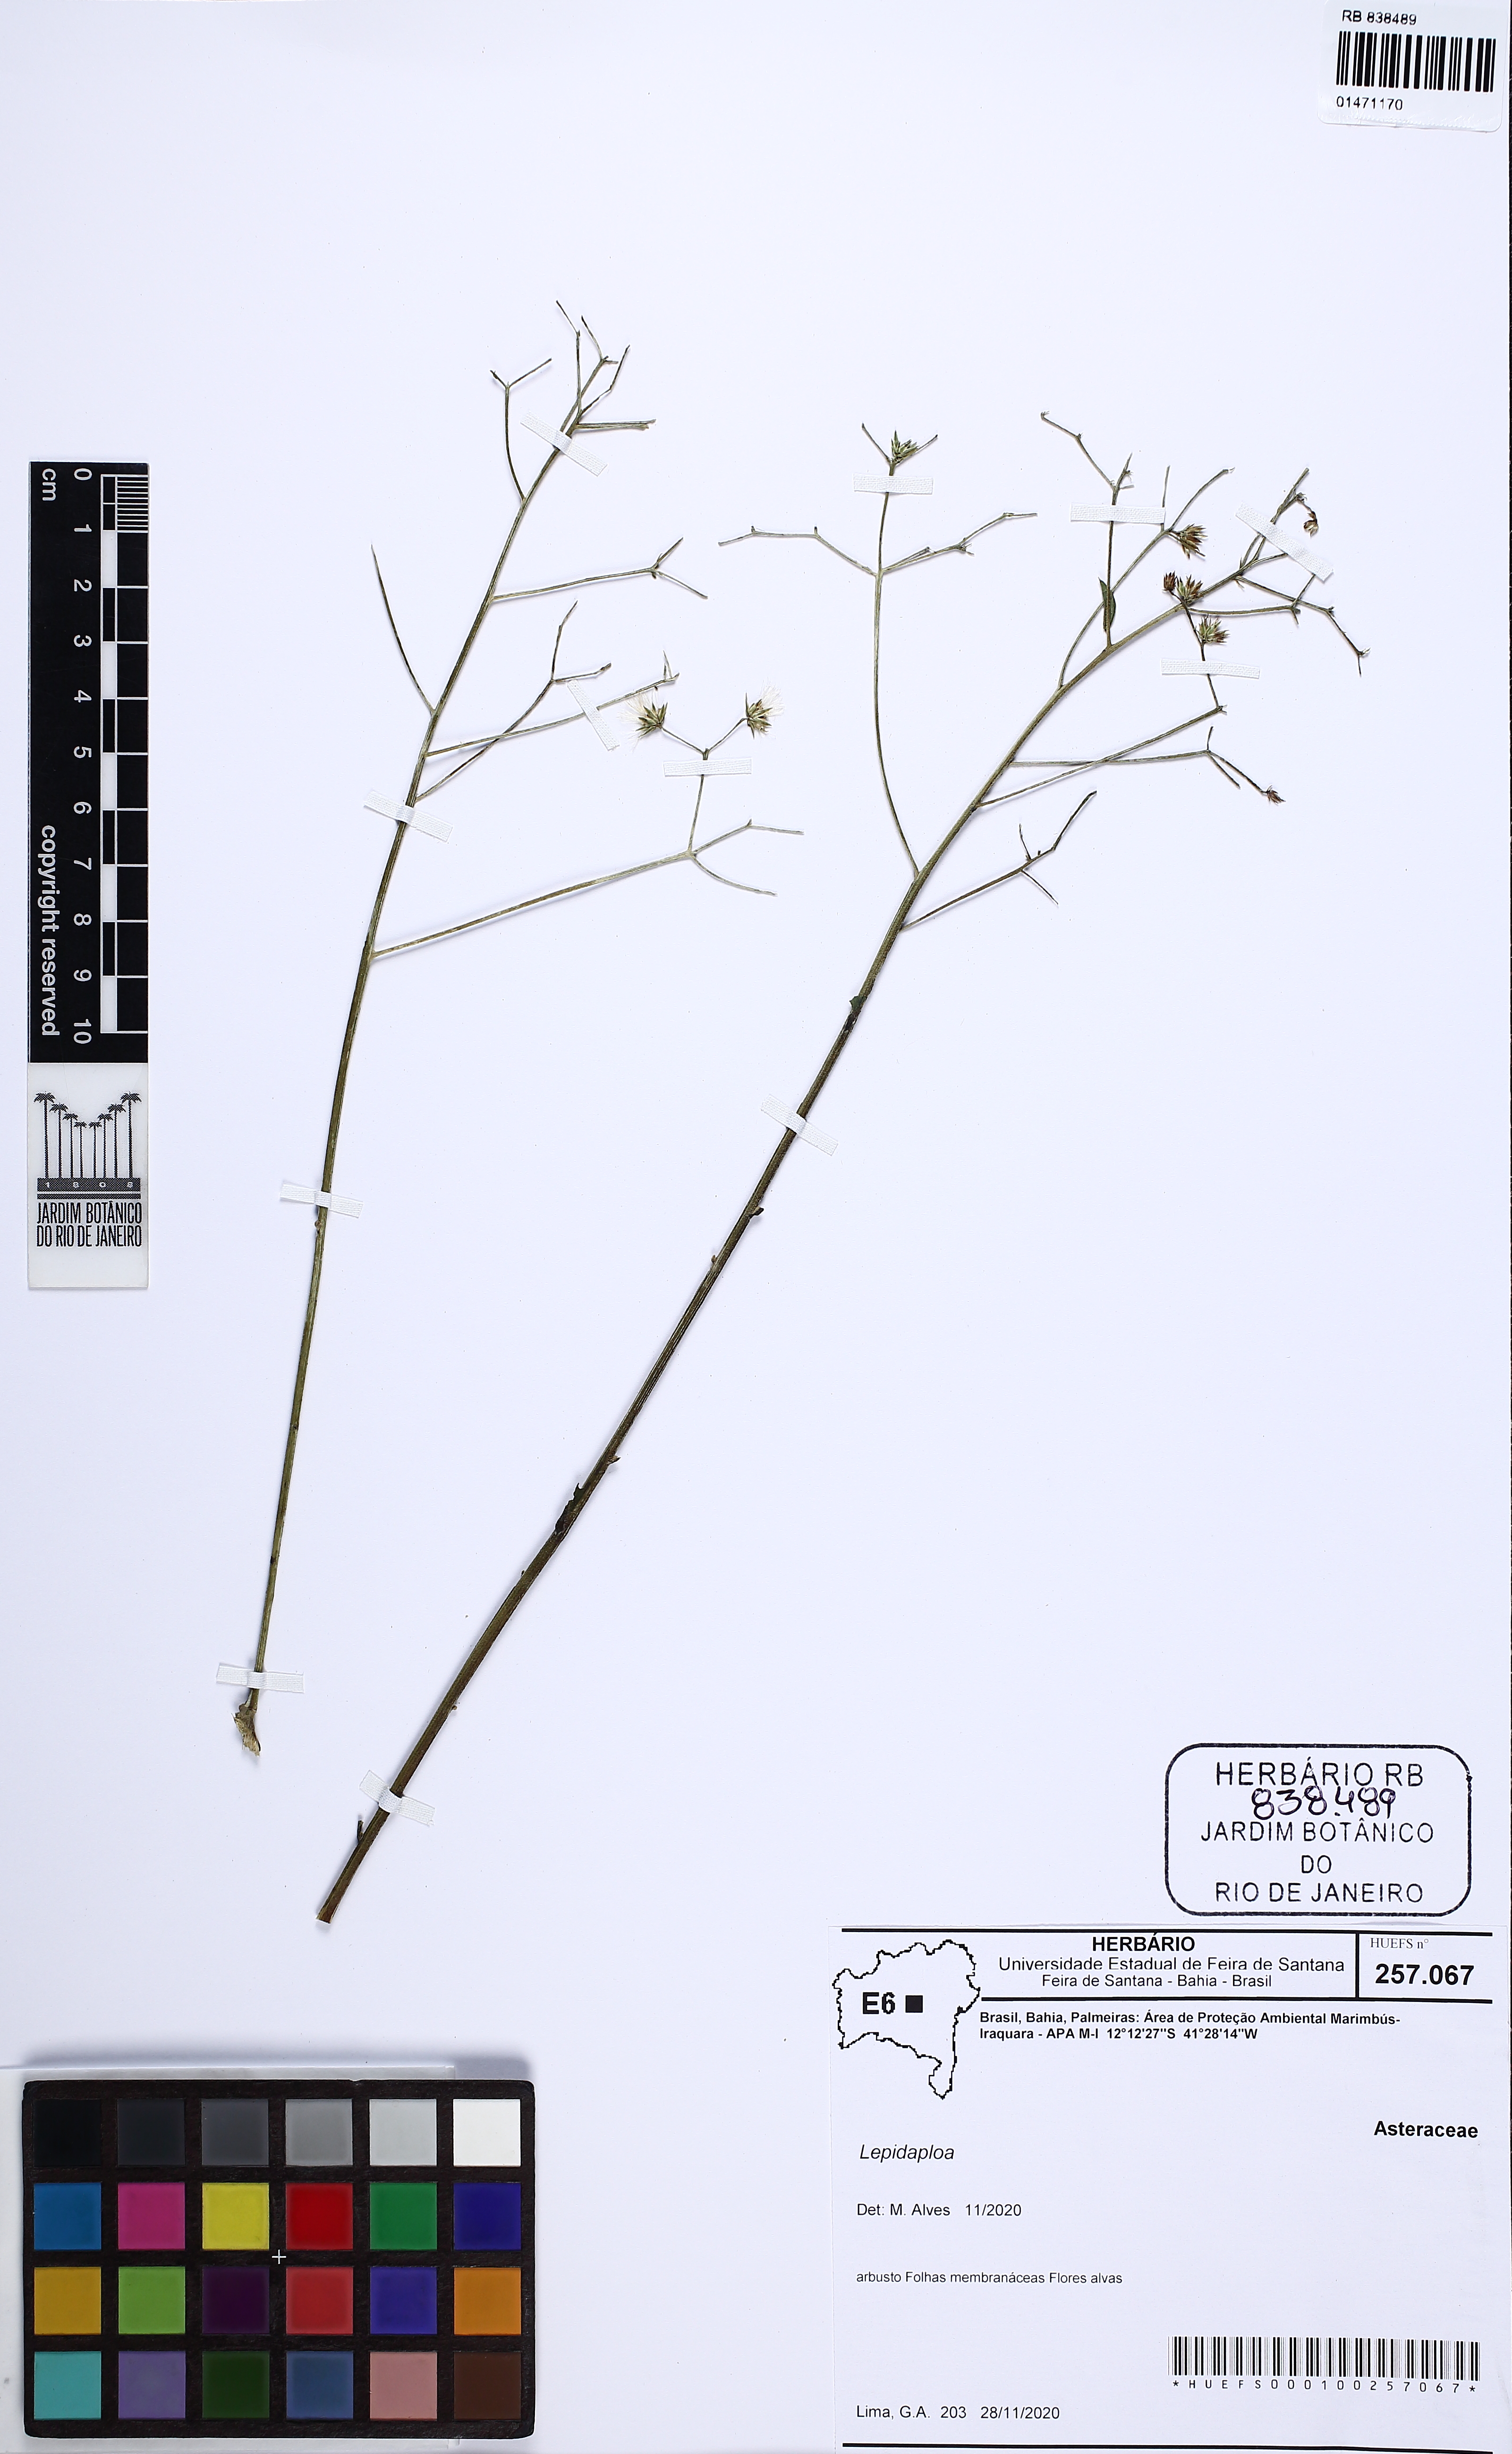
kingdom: Plantae
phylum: Tracheophyta
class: Magnoliopsida
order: Asterales
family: Asteraceae
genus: Lepidaploa
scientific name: Lepidaploa
